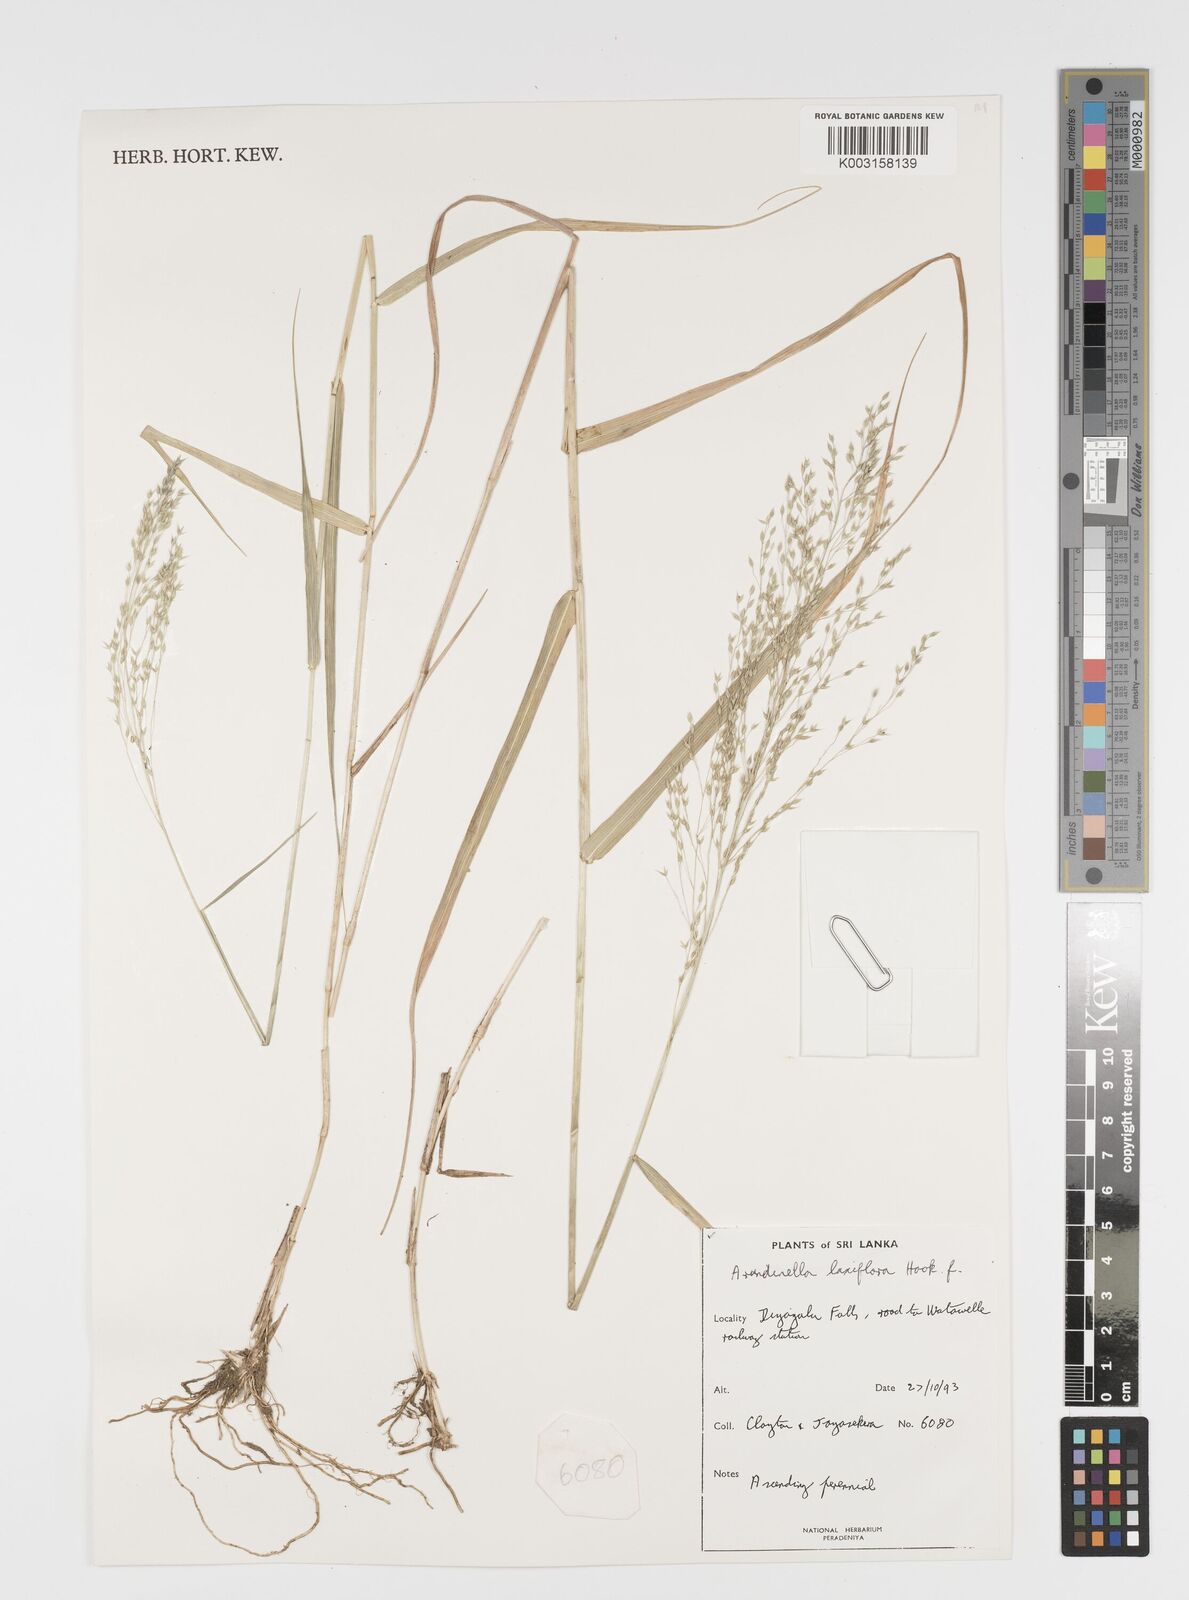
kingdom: Plantae
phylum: Tracheophyta
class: Liliopsida
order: Poales
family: Poaceae
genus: Arundinella
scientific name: Arundinella laxiflora
